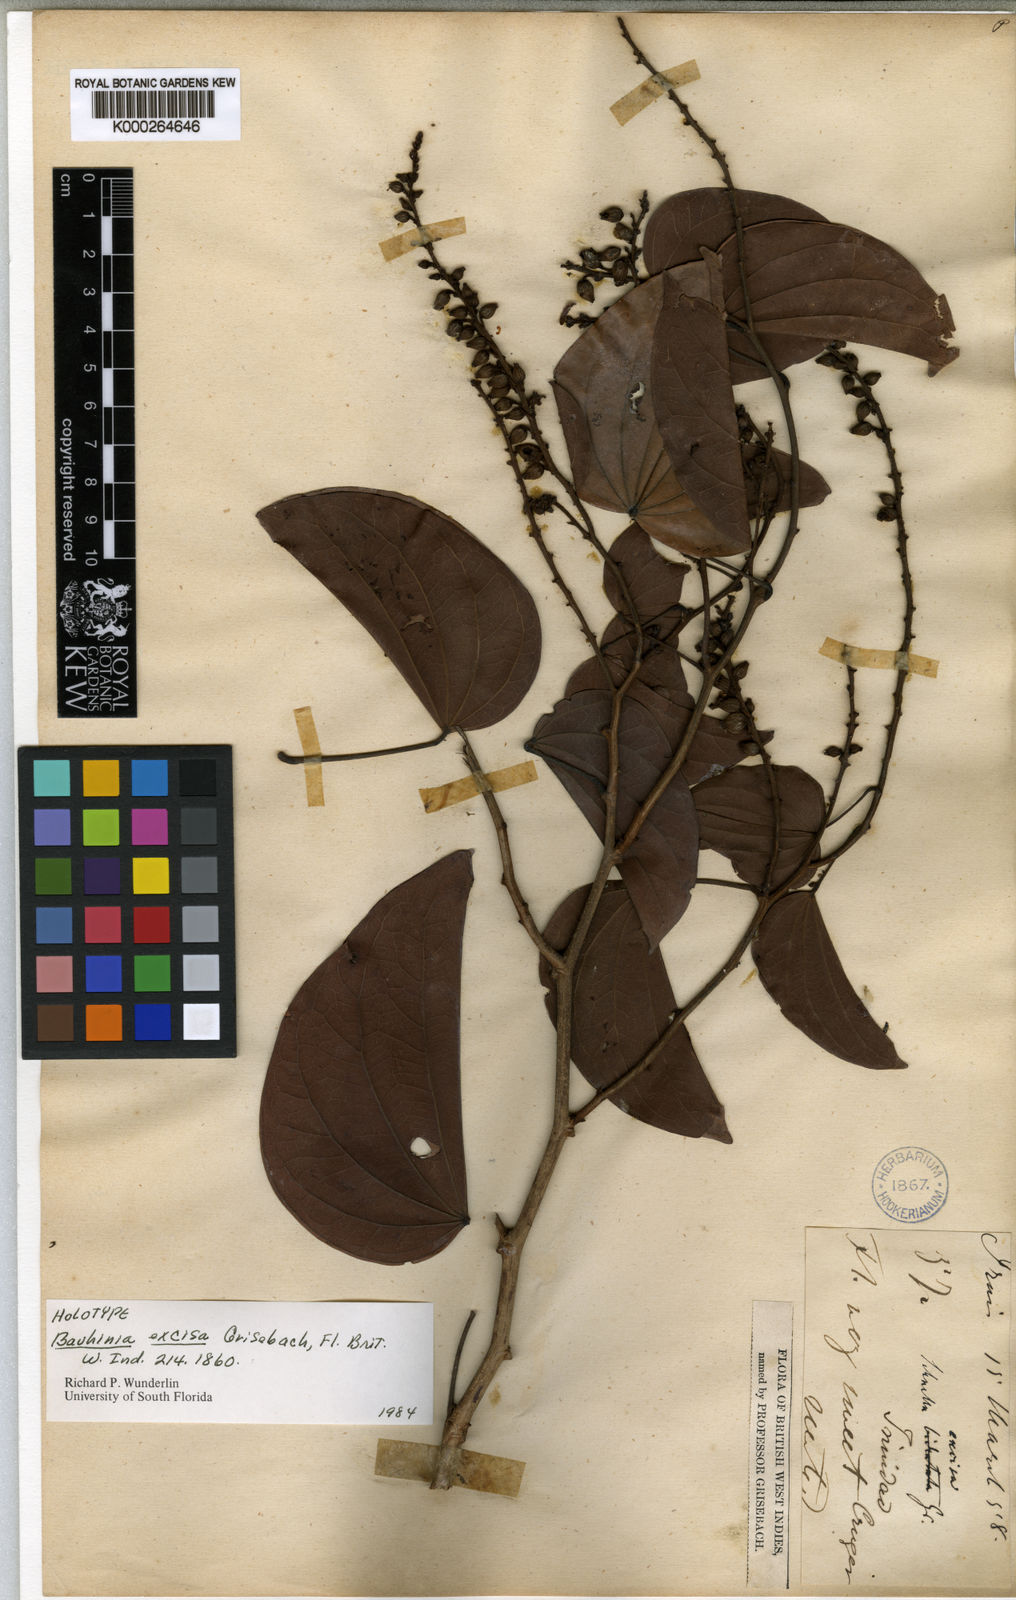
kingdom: Plantae
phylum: Tracheophyta
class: Magnoliopsida
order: Fabales
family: Fabaceae
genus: Schnella
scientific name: Schnella excisa
